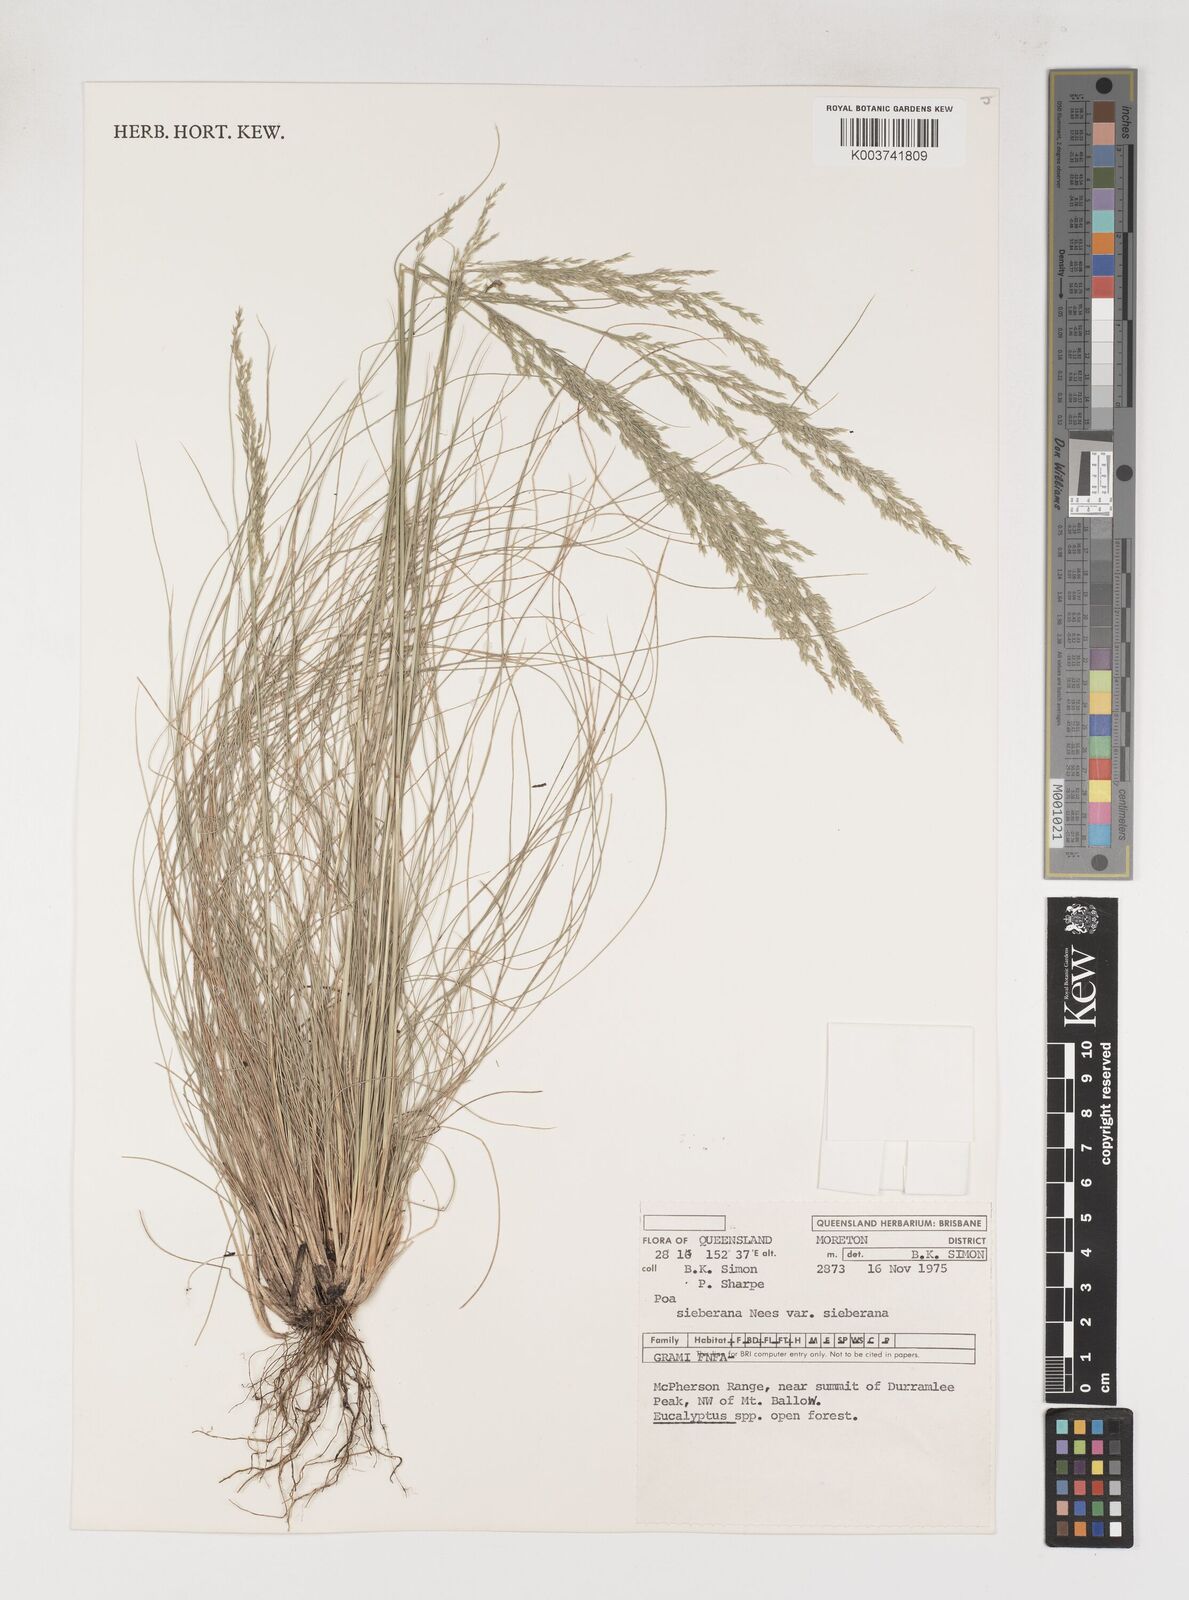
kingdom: Plantae
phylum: Tracheophyta
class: Liliopsida
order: Poales
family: Poaceae
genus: Poa
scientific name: Poa sieberiana
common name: Tussock poa
